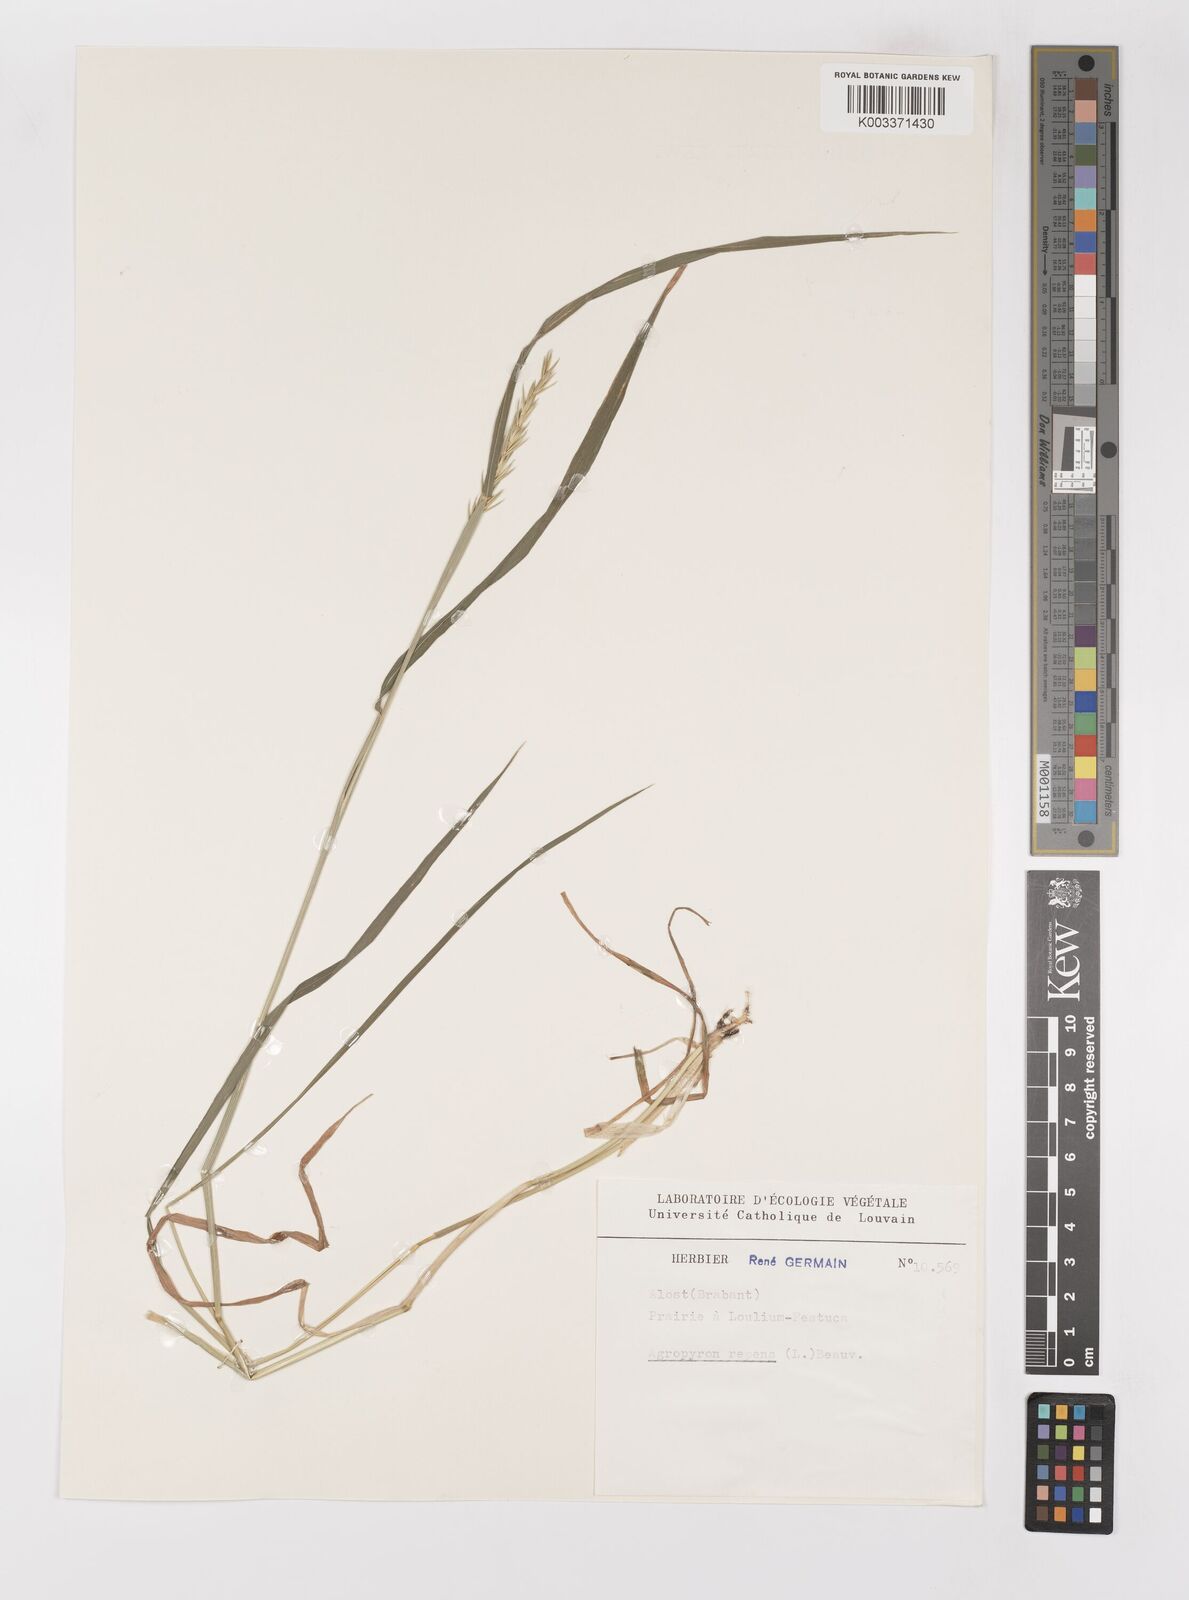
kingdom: Plantae
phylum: Tracheophyta
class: Liliopsida
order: Poales
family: Poaceae
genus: Elymus
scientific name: Elymus repens
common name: Quackgrass
